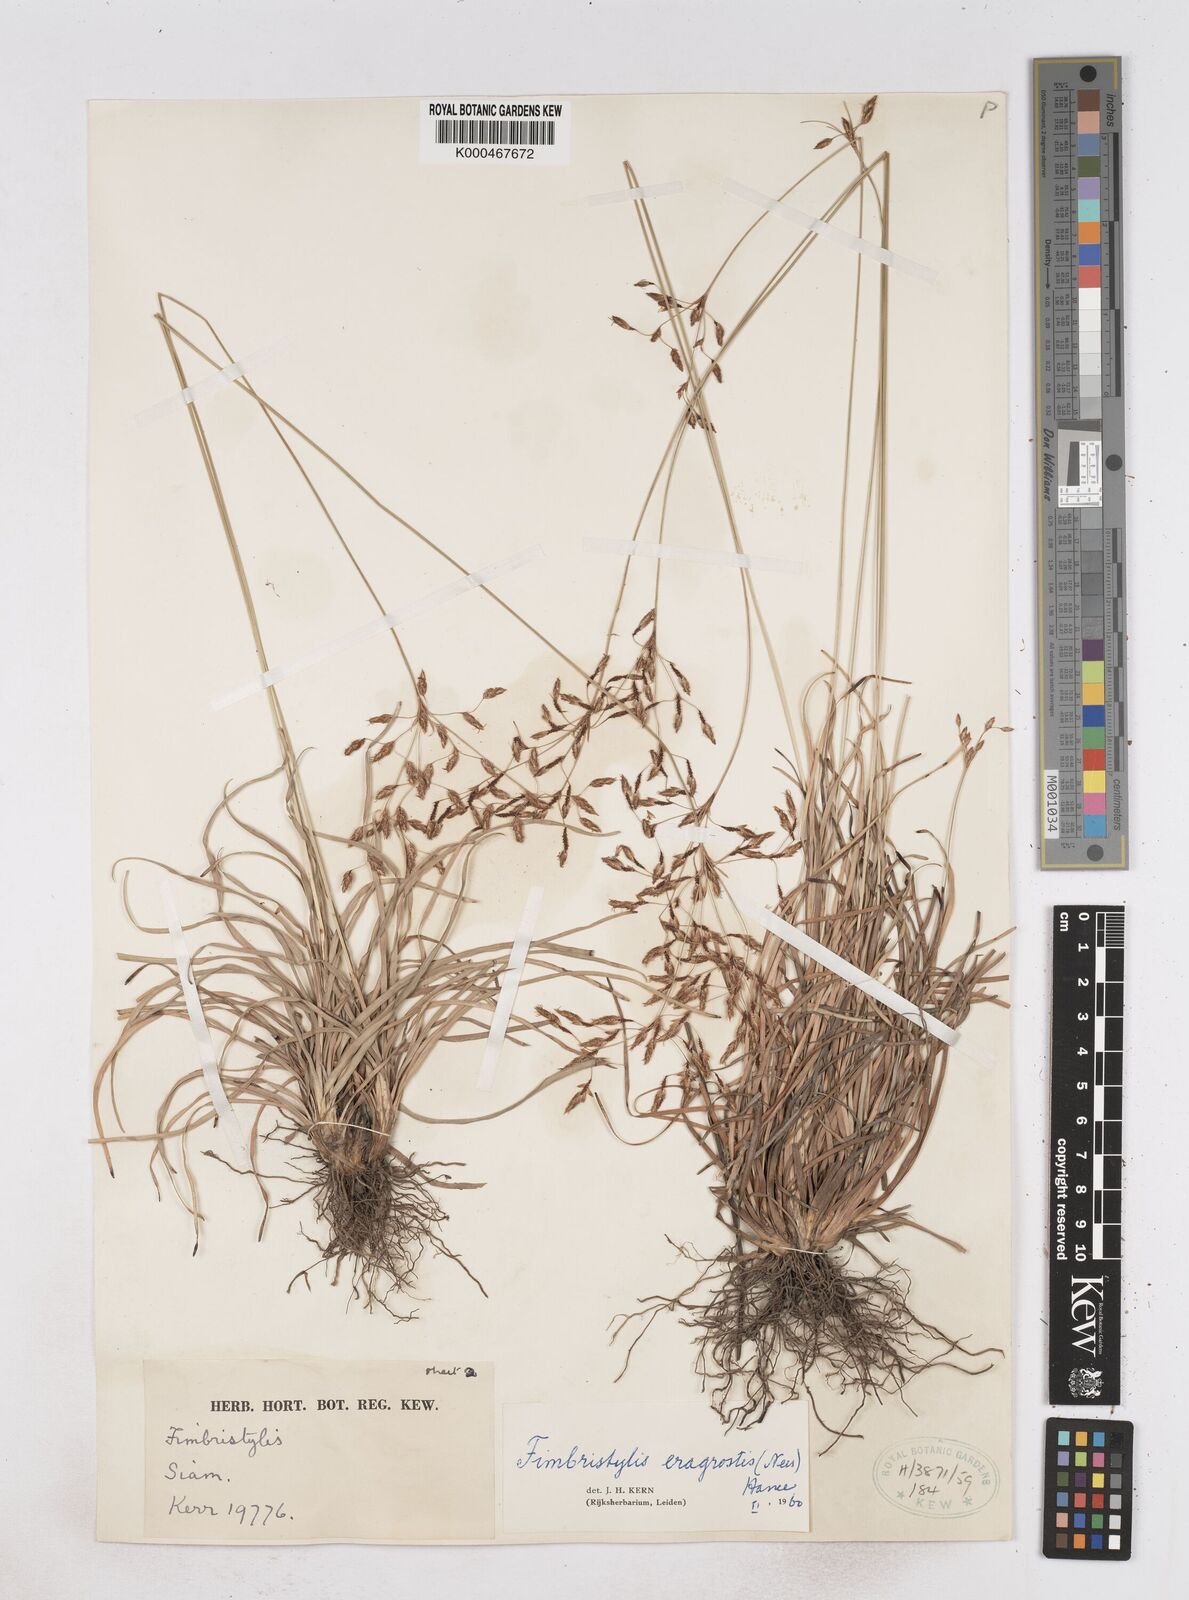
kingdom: Plantae
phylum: Tracheophyta
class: Liliopsida
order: Poales
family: Cyperaceae
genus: Fimbristylis
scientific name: Fimbristylis eragrostis
